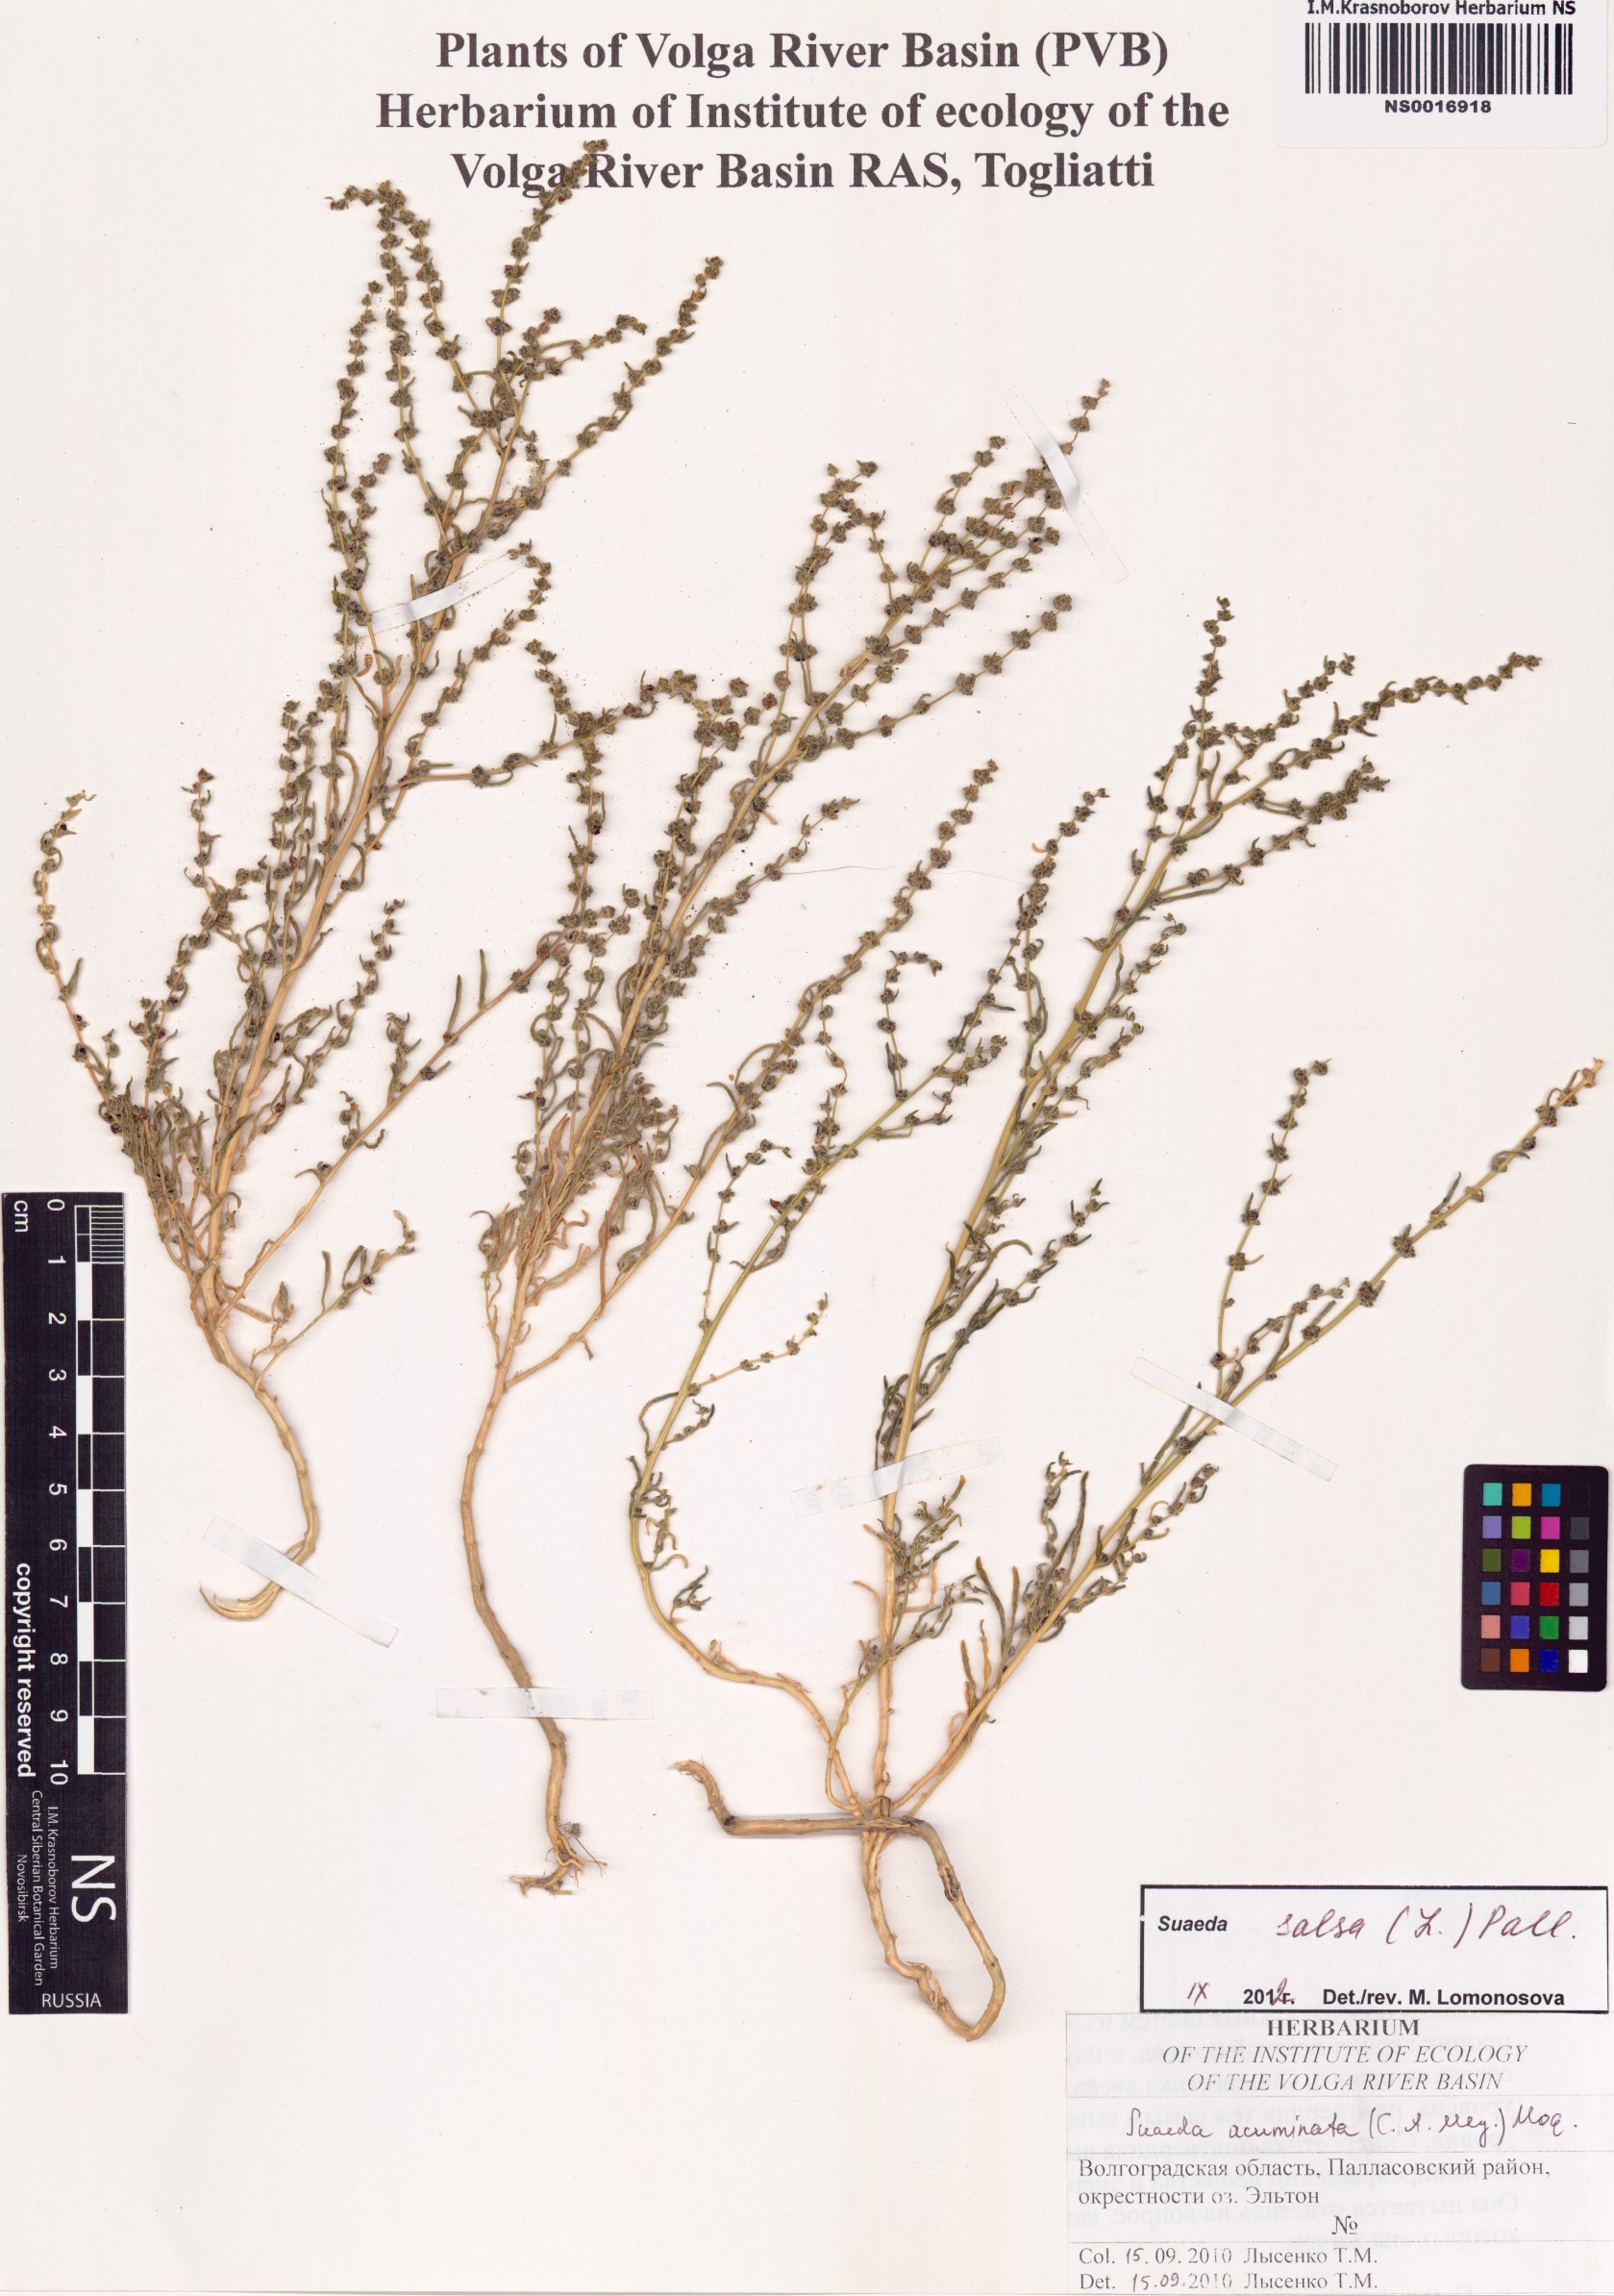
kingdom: Plantae
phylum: Tracheophyta
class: Magnoliopsida
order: Caryophyllales
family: Amaranthaceae
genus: Suaeda
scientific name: Suaeda salsa
